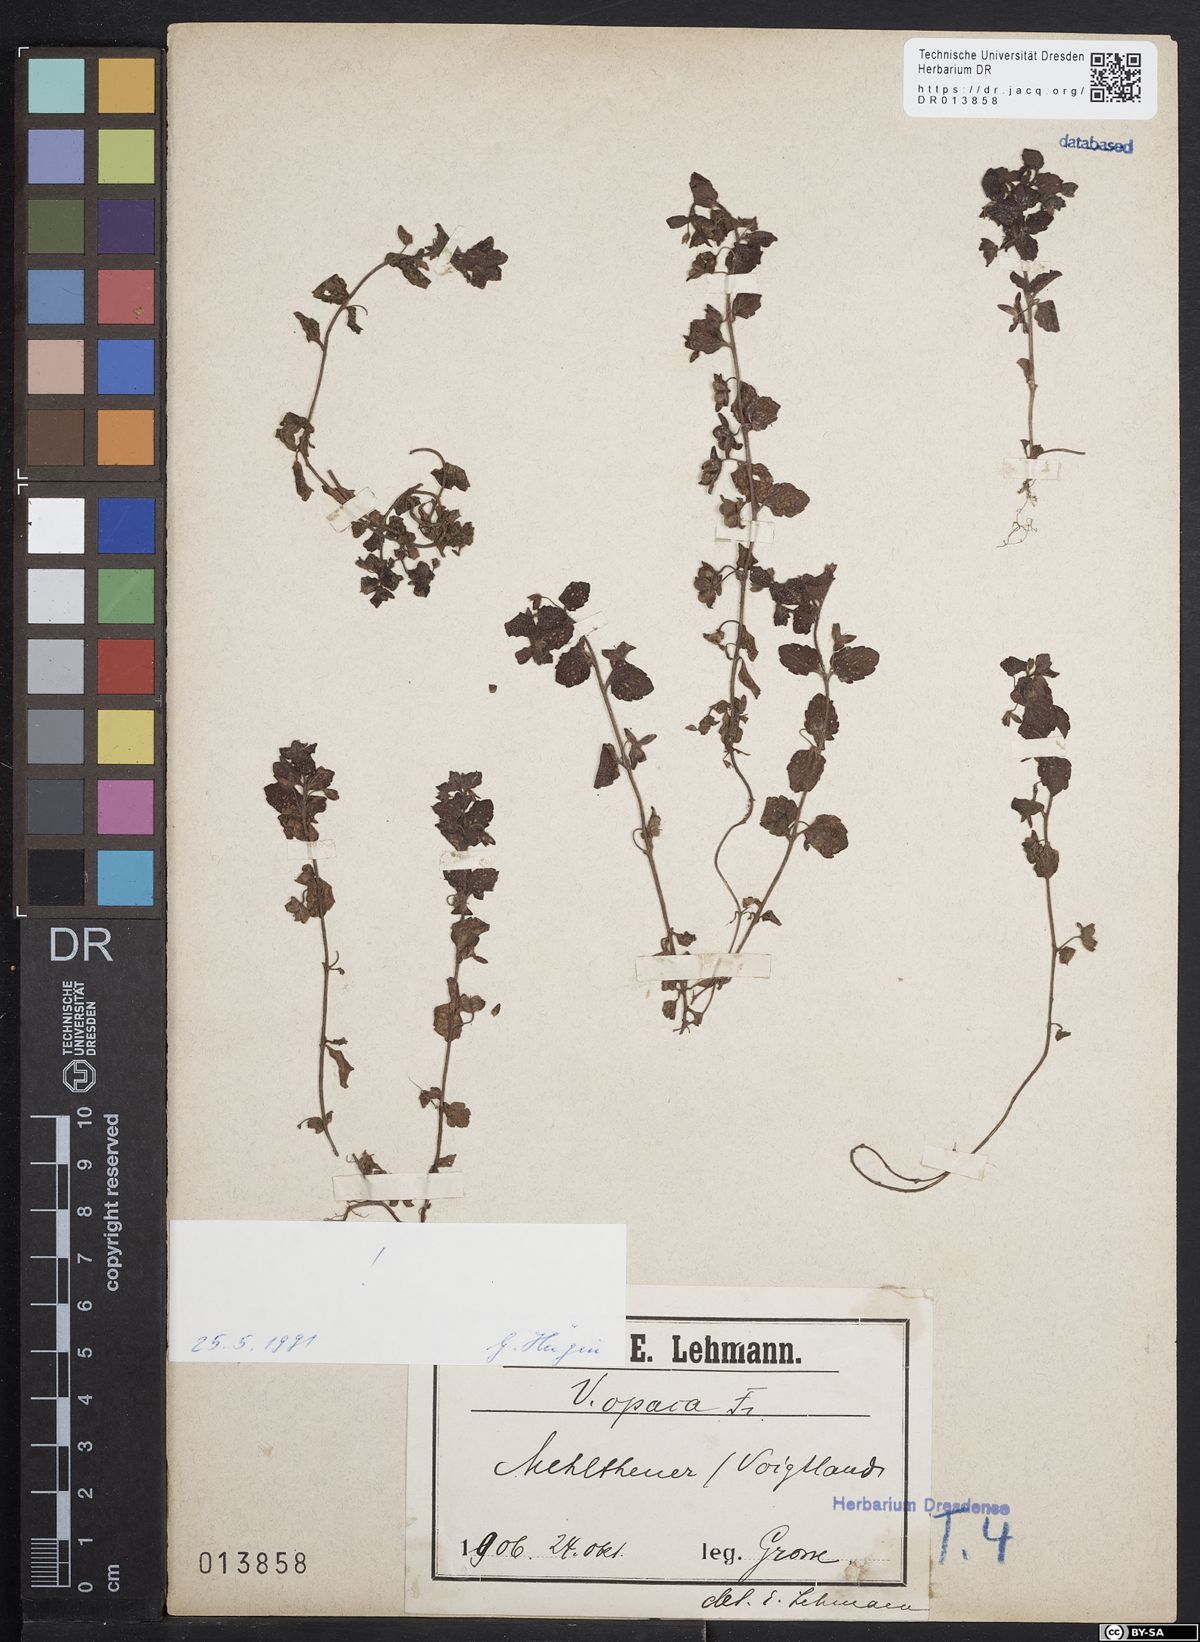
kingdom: Plantae
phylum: Tracheophyta
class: Magnoliopsida
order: Lamiales
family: Plantaginaceae
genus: Veronica
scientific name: Veronica opaca
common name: Dark speedwell
